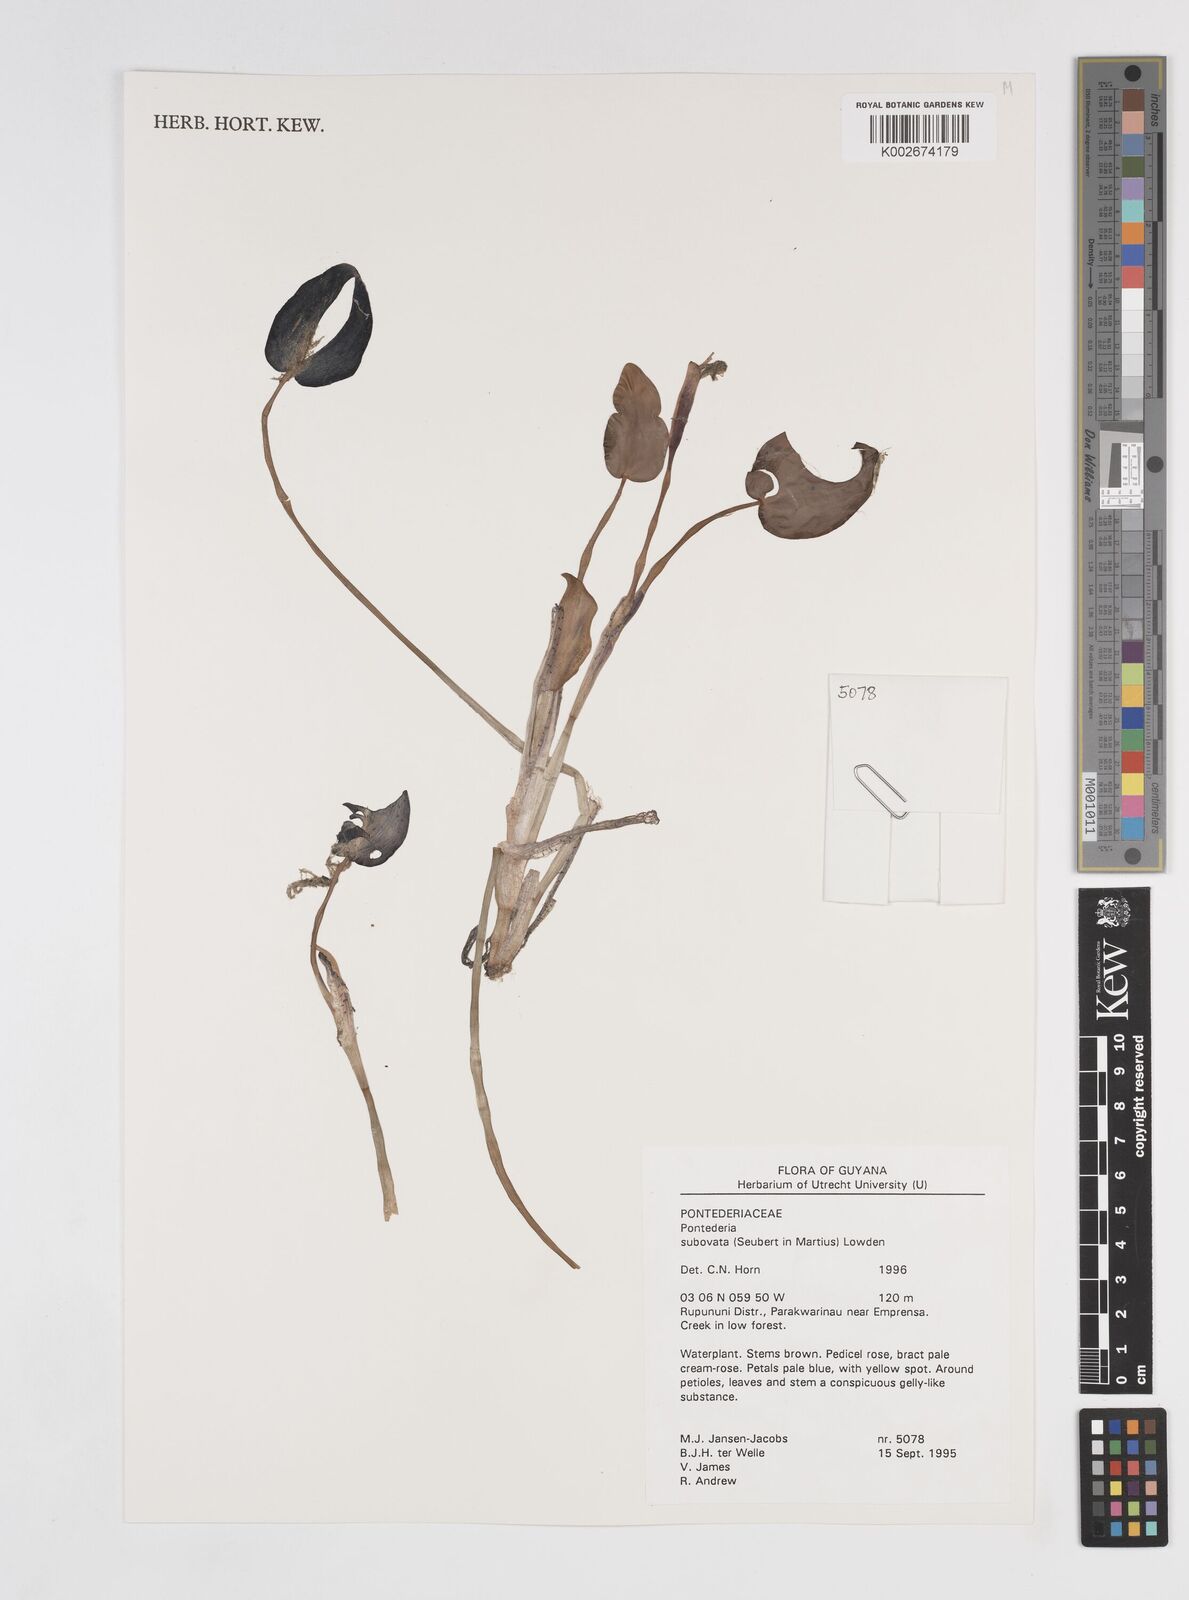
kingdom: Plantae
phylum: Tracheophyta
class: Liliopsida
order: Commelinales
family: Pontederiaceae
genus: Pontederia
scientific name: Pontederia subovata
